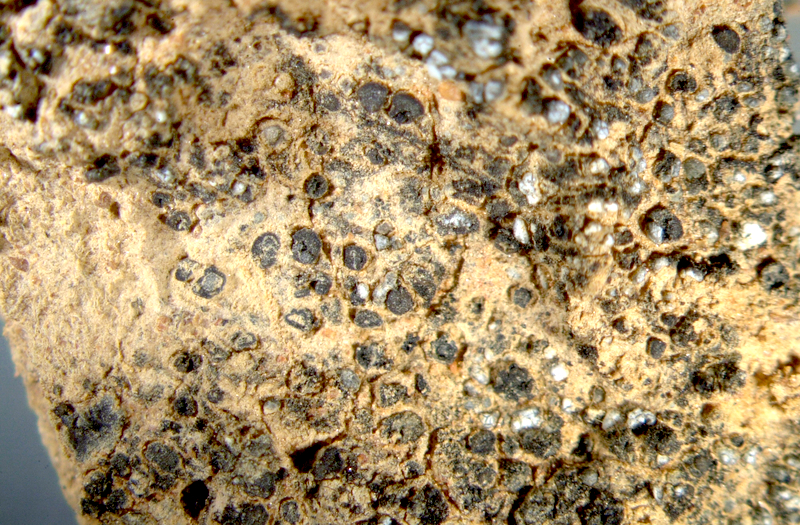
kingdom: Fungi
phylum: Ascomycota
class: Eurotiomycetes
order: Verrucariales
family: Verrucariaceae
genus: Catapyrenium
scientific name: Catapyrenium squamulosum
